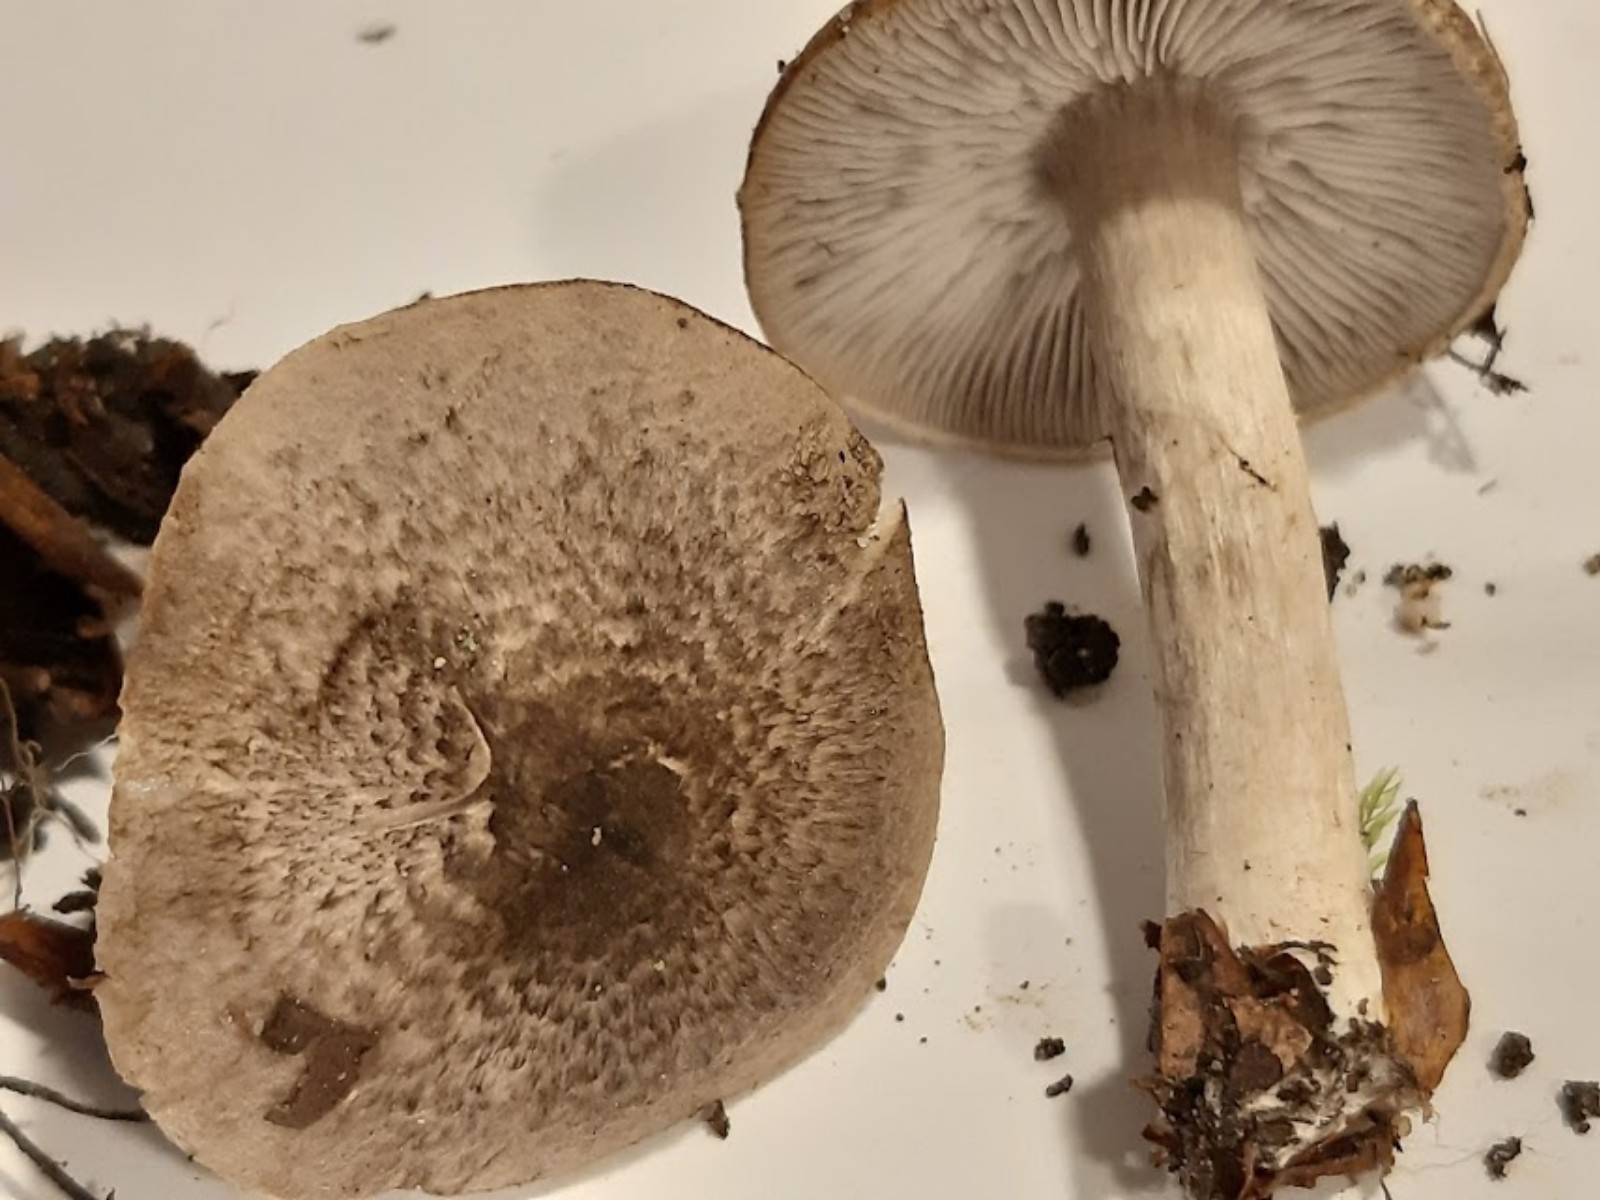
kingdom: Fungi
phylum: Basidiomycota
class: Agaricomycetes
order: Agaricales
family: Tricholomataceae
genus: Tricholoma
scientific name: Tricholoma
